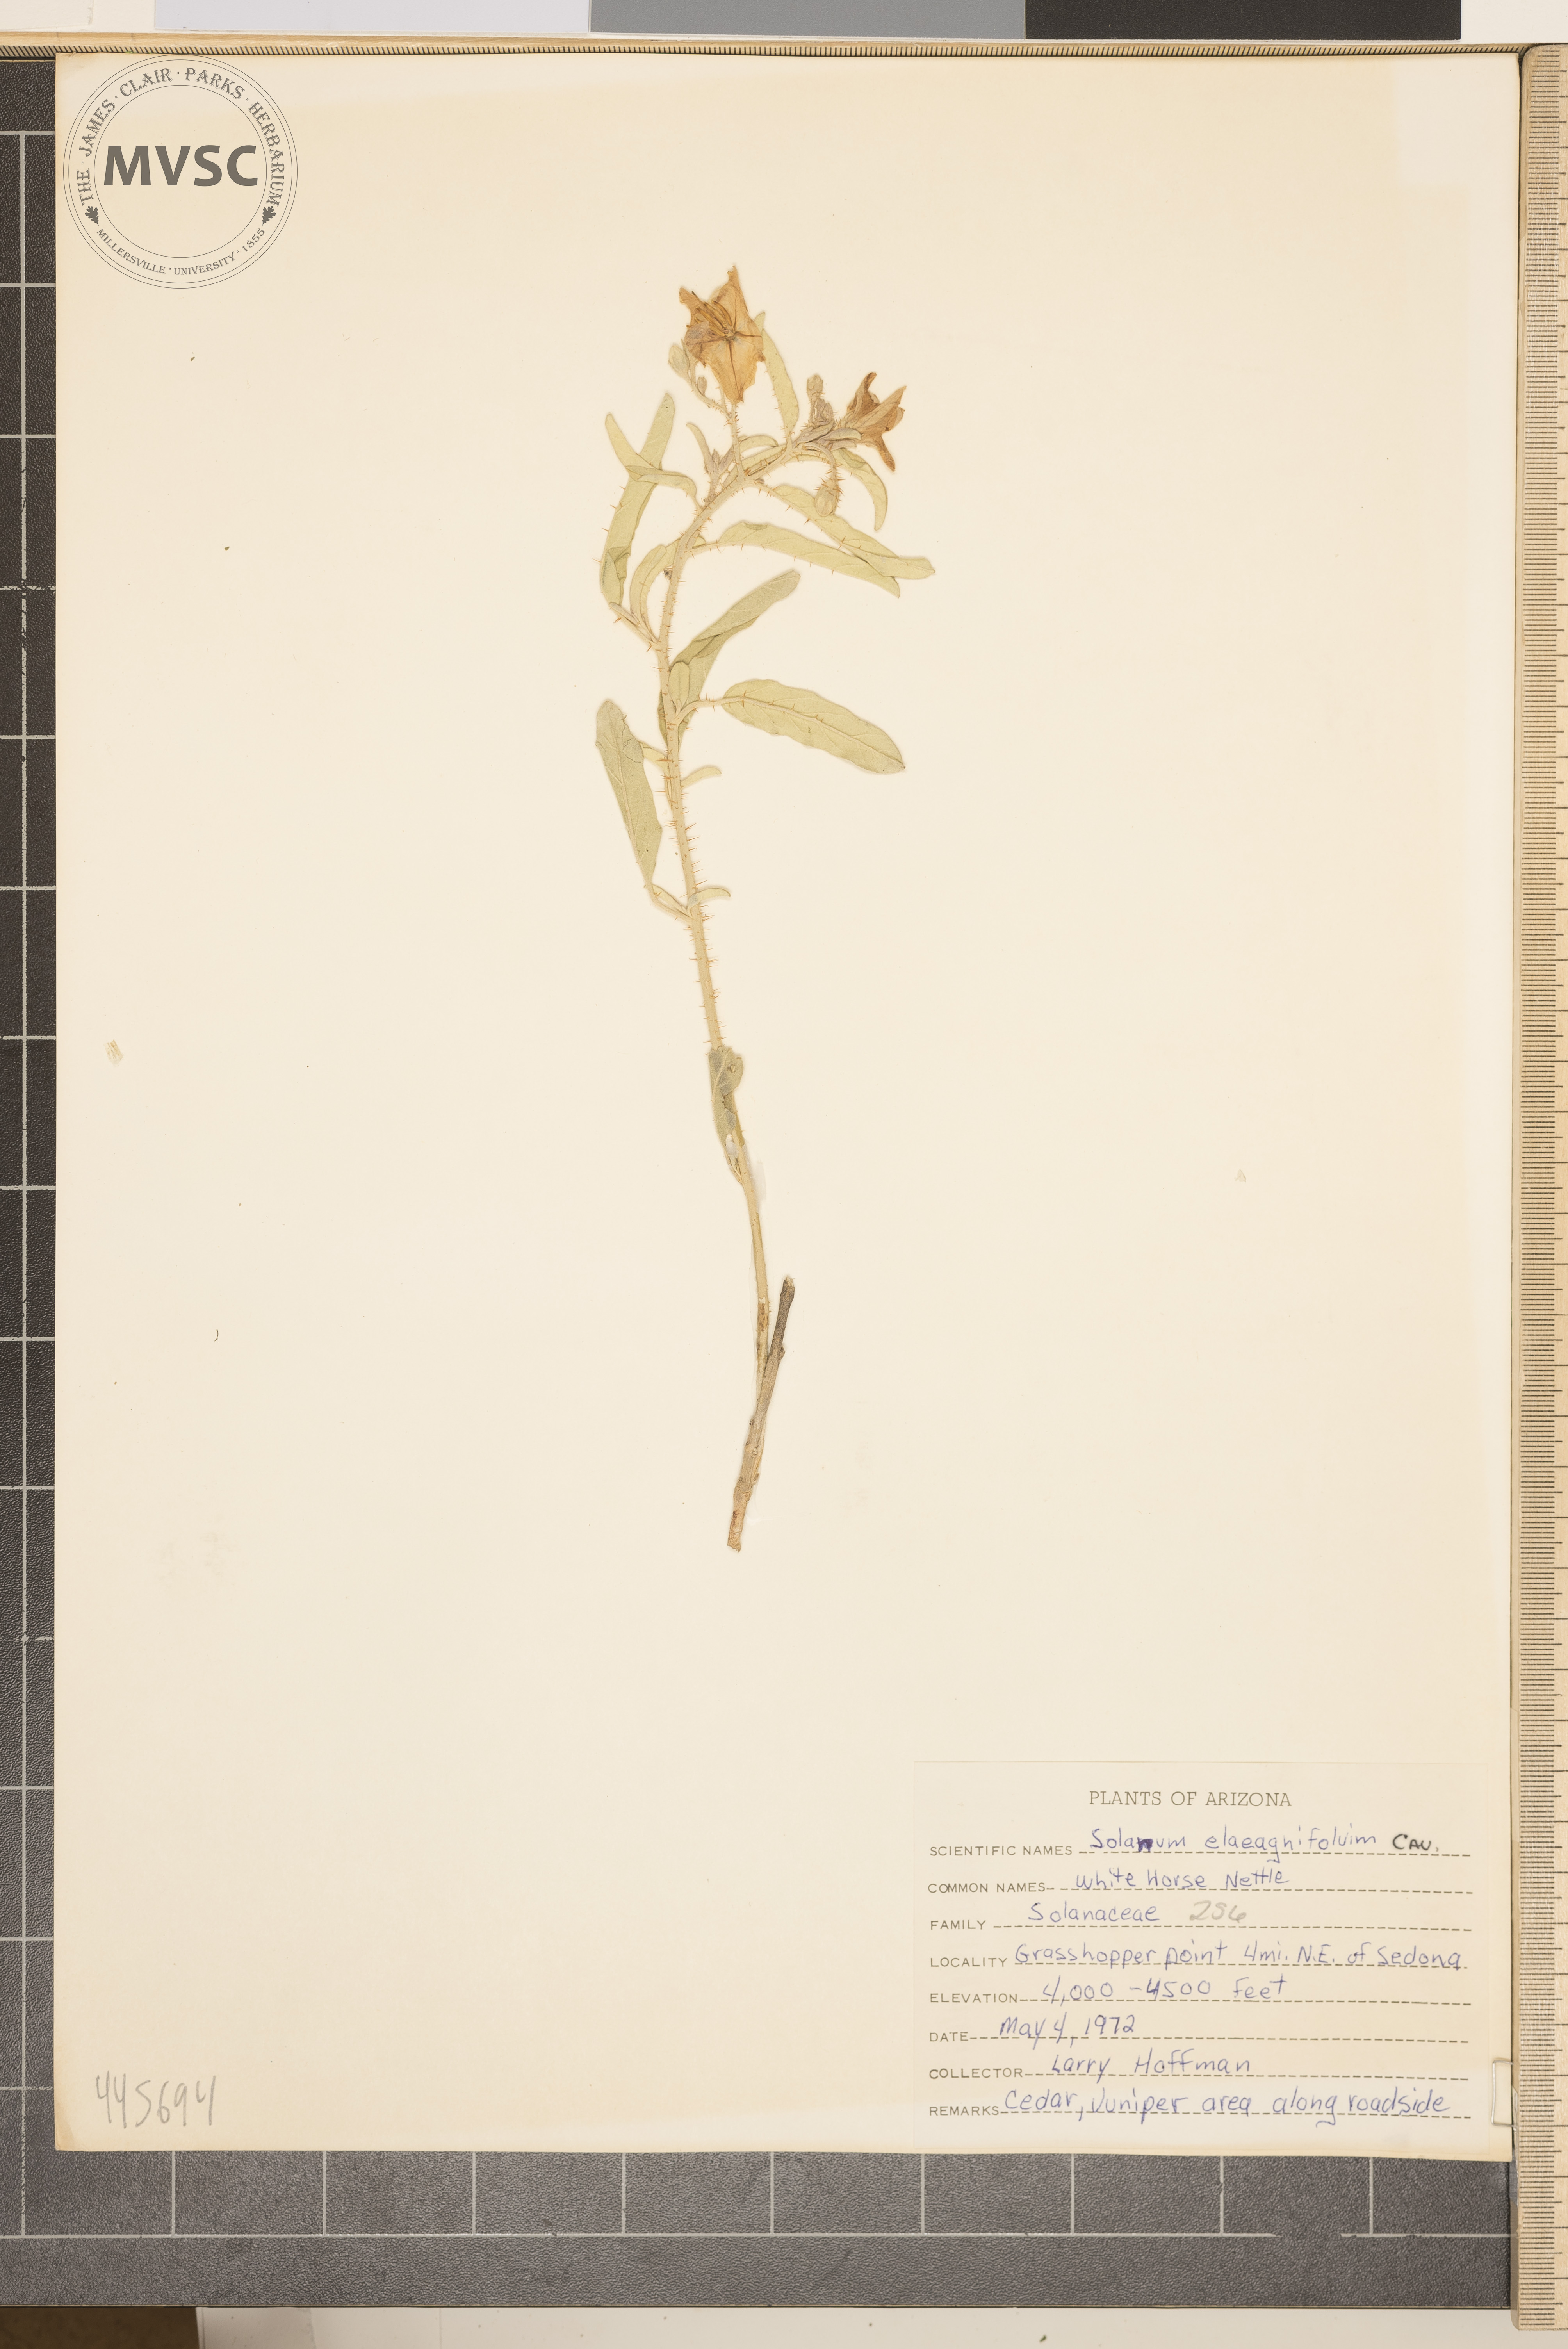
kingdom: Plantae
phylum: Tracheophyta
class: Magnoliopsida
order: Solanales
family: Solanaceae
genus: Solanum
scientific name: Solanum elaeagnifolium
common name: Silverleaf nightshade
